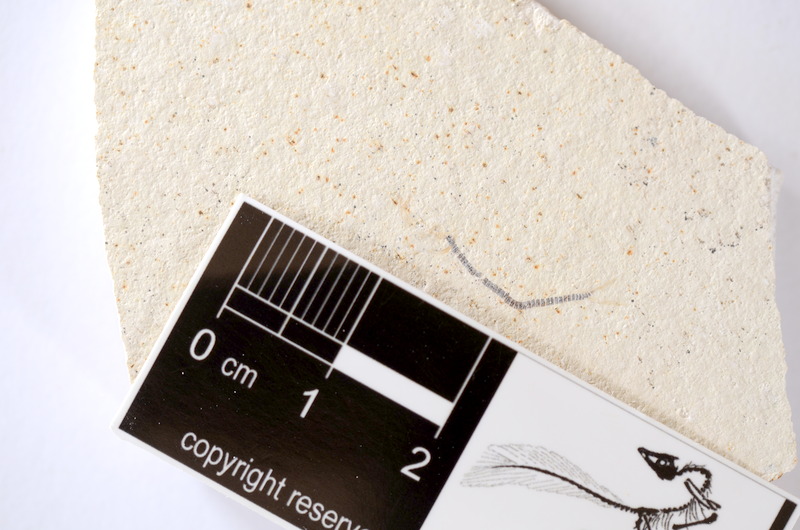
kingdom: Animalia
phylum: Chordata
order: Salmoniformes
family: Orthogonikleithridae
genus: Orthogonikleithrus
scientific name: Orthogonikleithrus hoelli
